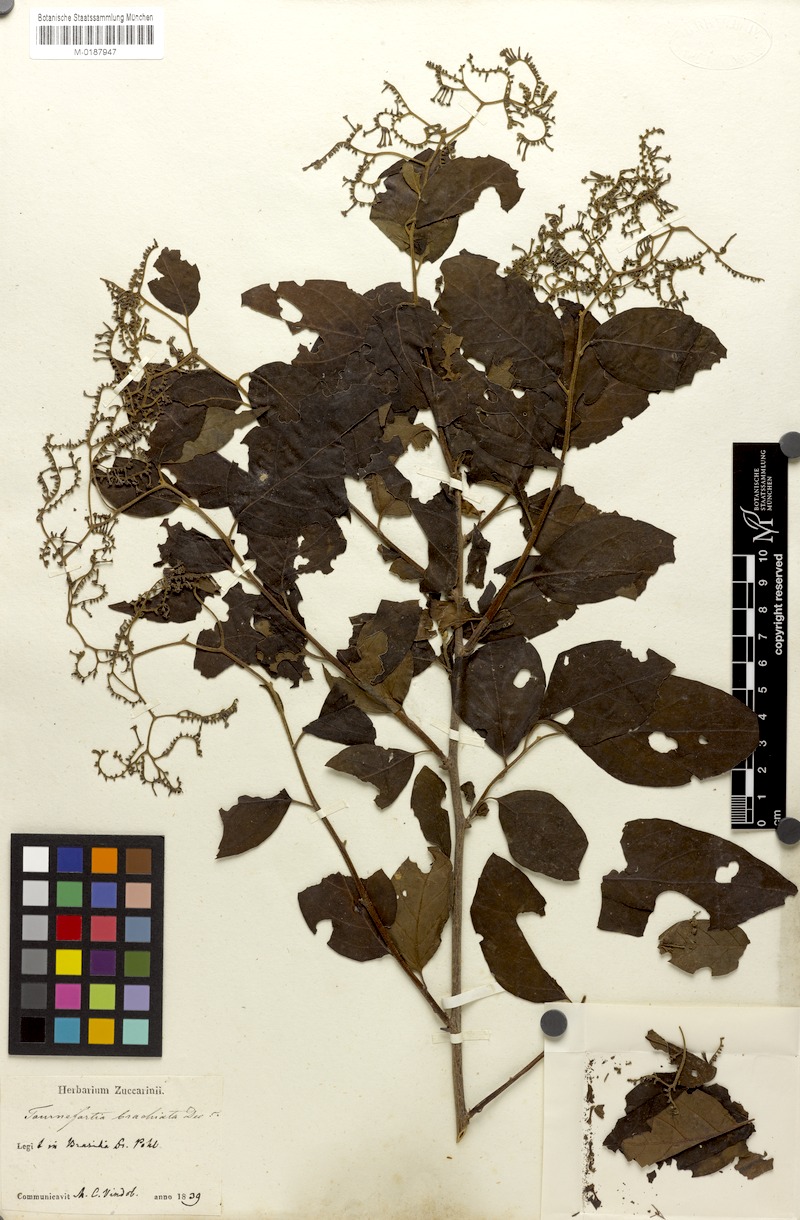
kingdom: Plantae
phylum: Tracheophyta
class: Magnoliopsida
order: Boraginales
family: Heliotropiaceae
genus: Myriopus
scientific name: Myriopus paniculatus
